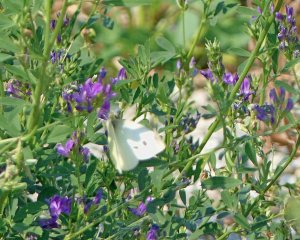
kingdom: Animalia
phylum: Arthropoda
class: Insecta
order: Lepidoptera
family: Pieridae
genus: Pieris
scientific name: Pieris rapae
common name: Cabbage White
